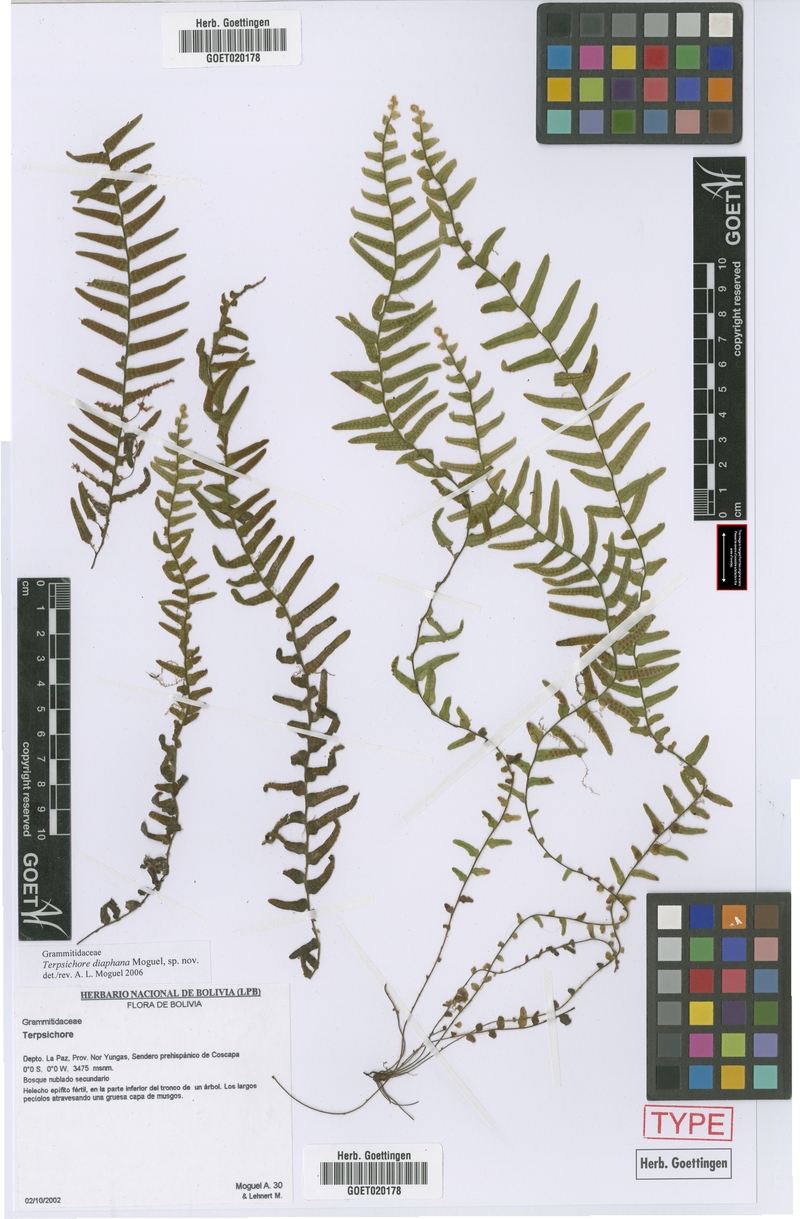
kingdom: Plantae
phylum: Tracheophyta
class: Polypodiopsida
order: Polypodiales
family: Polypodiaceae
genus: Alansmia
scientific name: Alansmia diaphana
